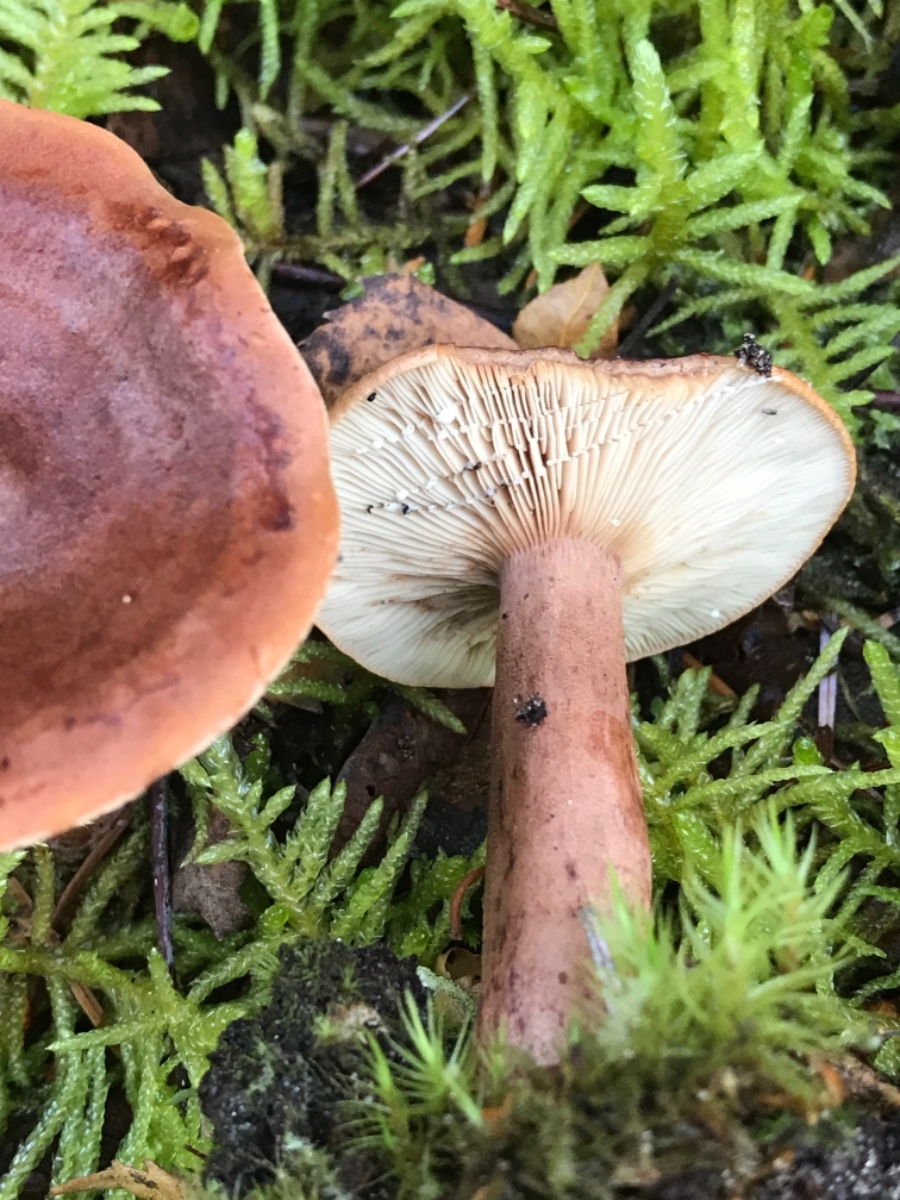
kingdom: Fungi
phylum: Basidiomycota
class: Agaricomycetes
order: Russulales
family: Russulaceae
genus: Lactarius
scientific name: Lactarius rufus
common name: rødbrun mælkehat
